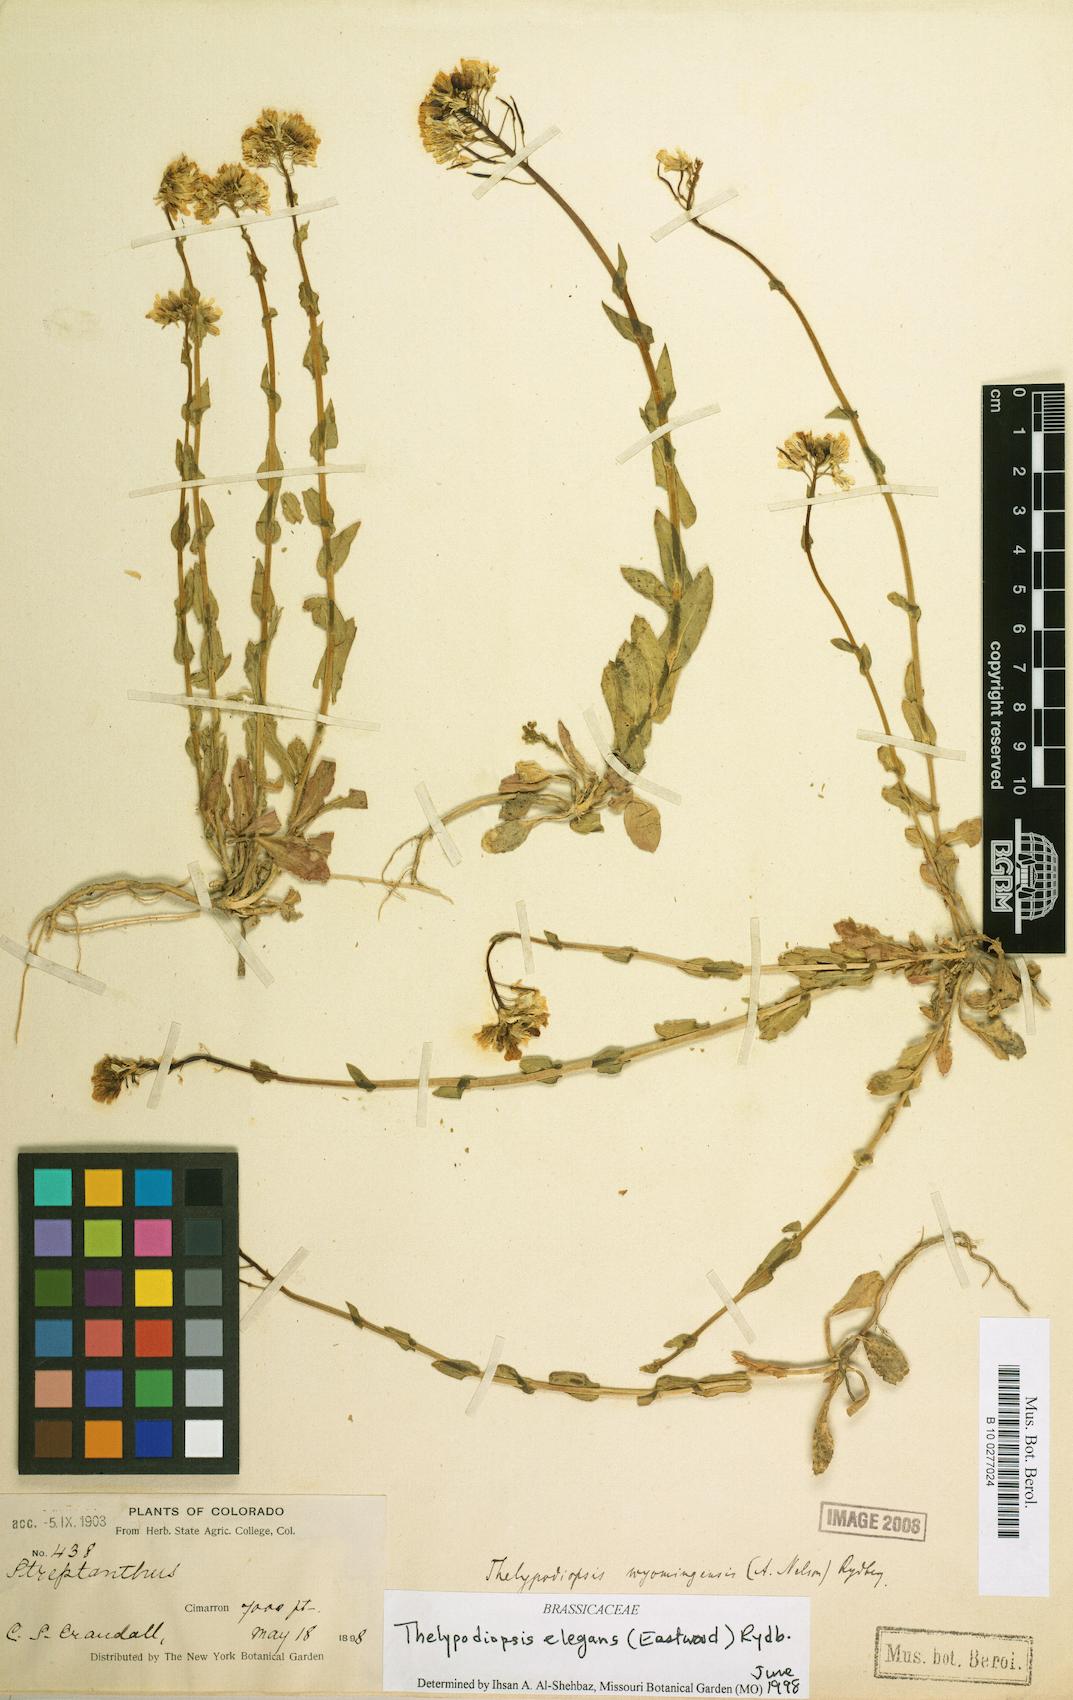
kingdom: Plantae
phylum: Tracheophyta
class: Magnoliopsida
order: Brassicales
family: Brassicaceae
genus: Thelypodiopsis
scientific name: Thelypodiopsis elegans
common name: Elegant thelypody
